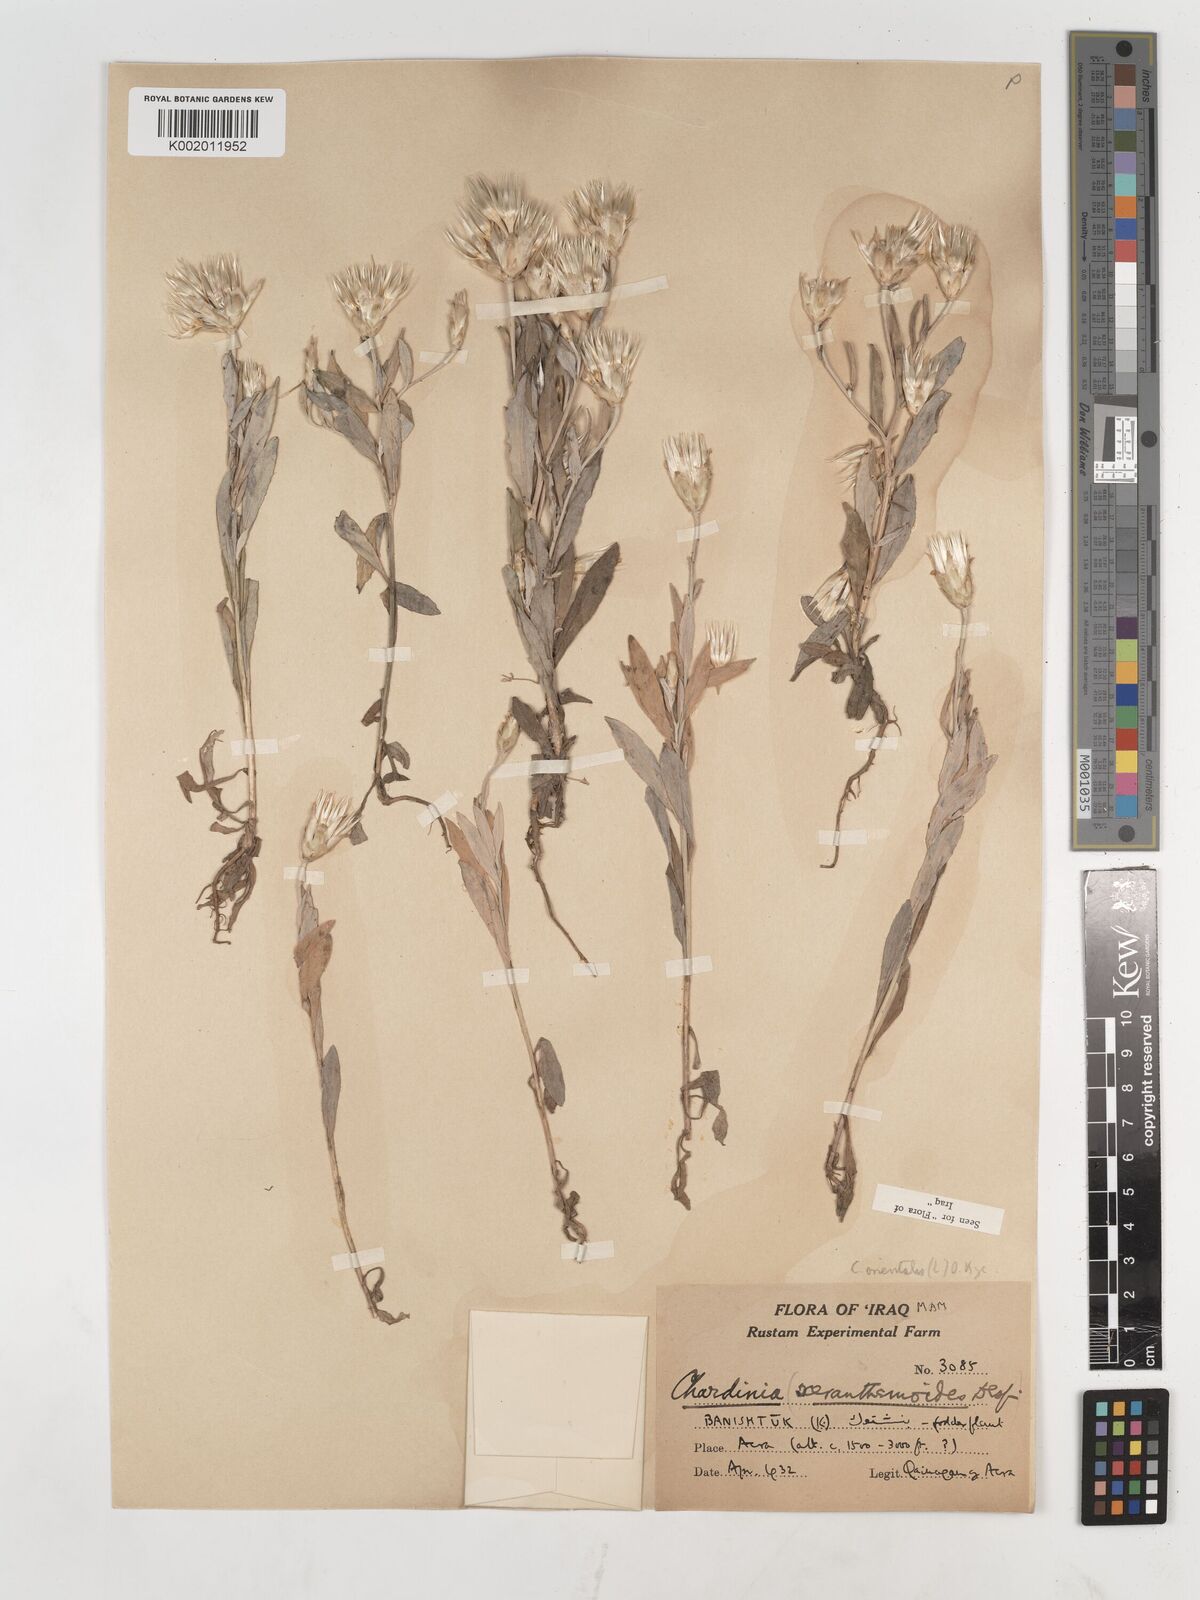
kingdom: Plantae
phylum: Tracheophyta
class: Magnoliopsida
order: Asterales
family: Asteraceae
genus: Chardinia
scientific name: Chardinia orientalis
